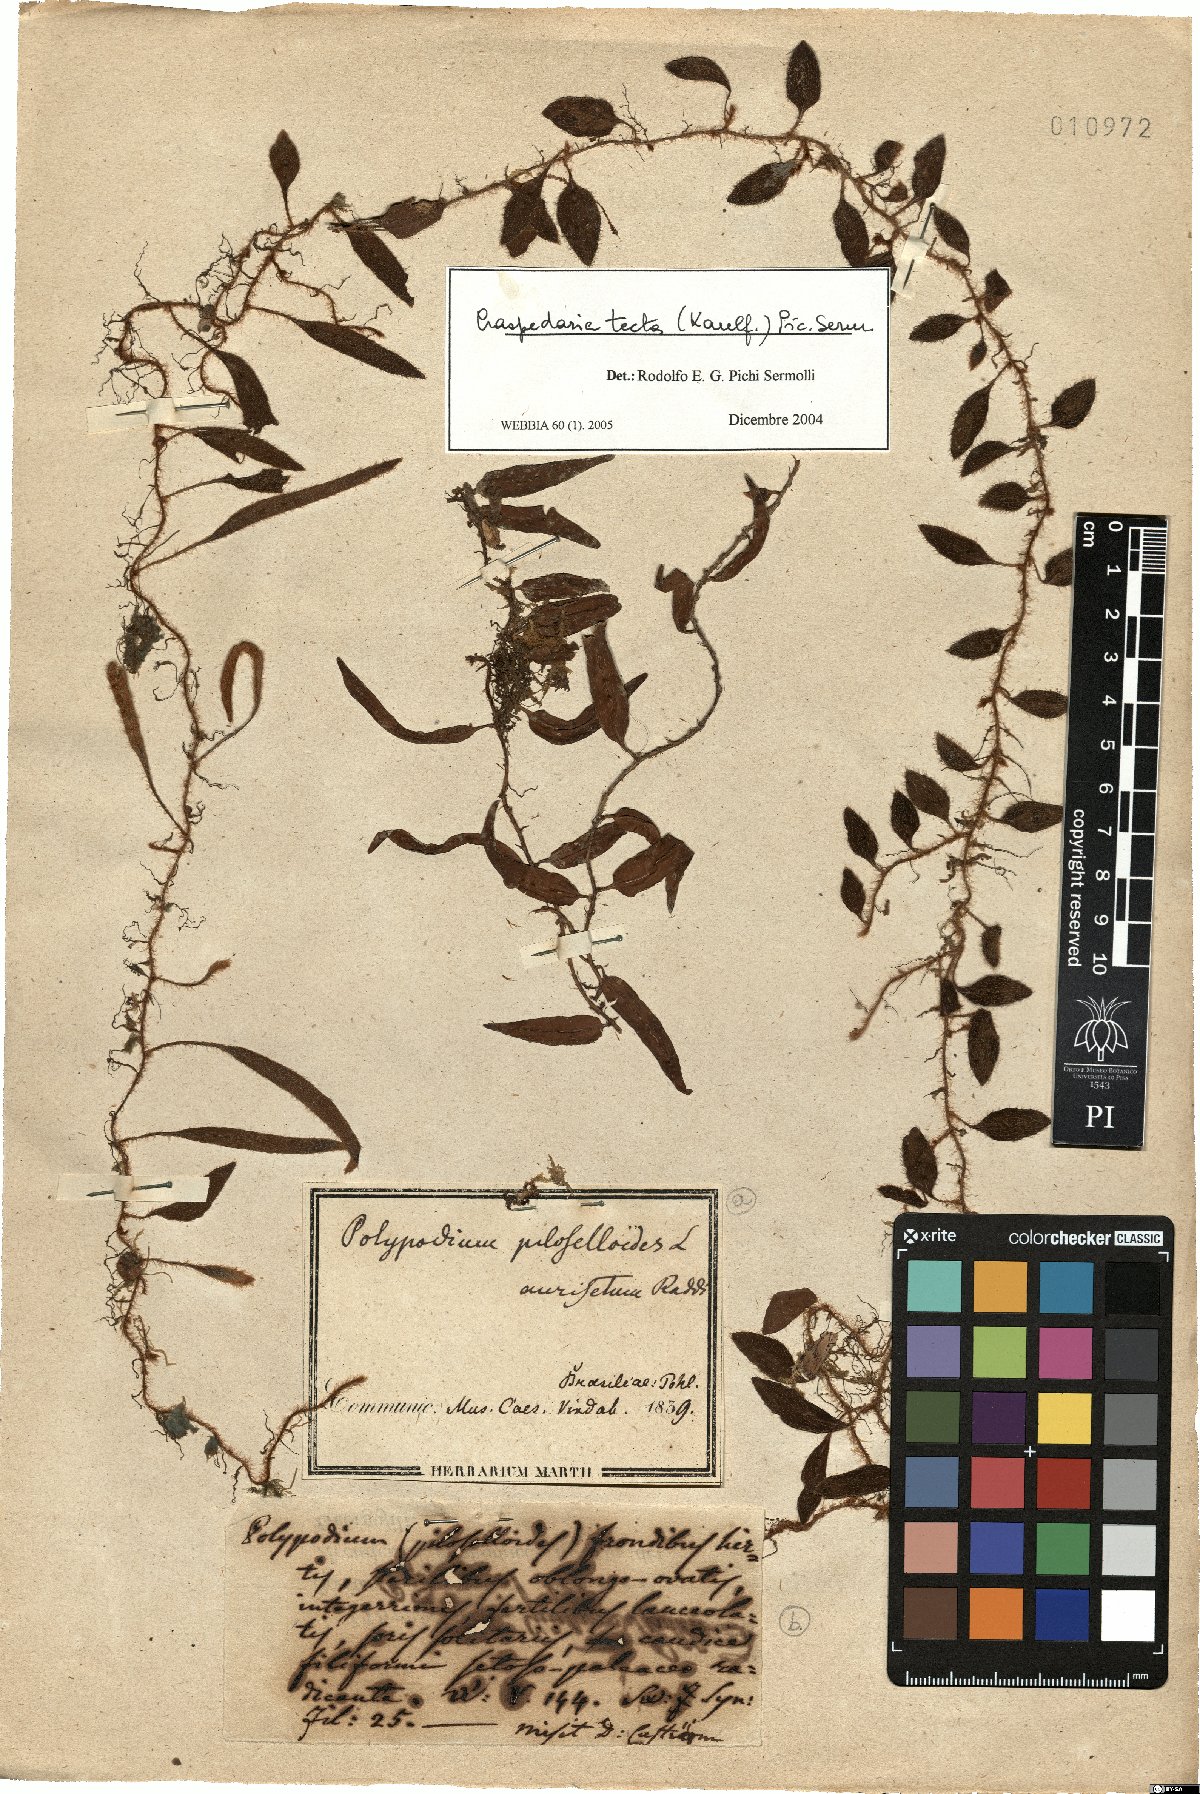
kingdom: Plantae
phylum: Tracheophyta
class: Polypodiopsida
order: Polypodiales
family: Polypodiaceae
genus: Microgramma
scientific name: Microgramma tecta
